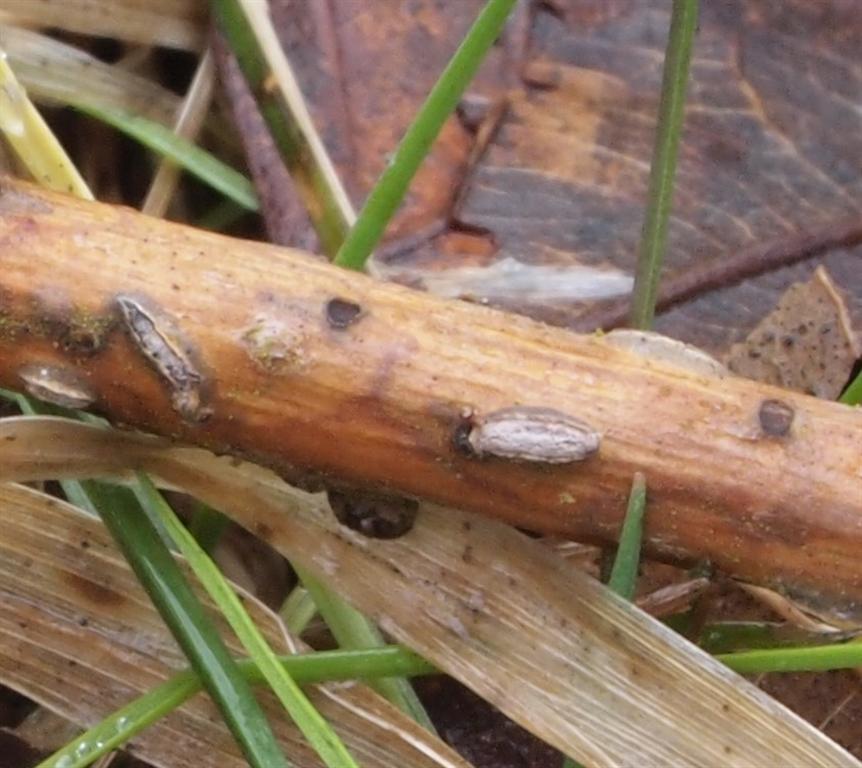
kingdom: Fungi
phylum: Ascomycota
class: Leotiomycetes
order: Rhytismatales
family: Rhytismataceae
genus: Colpoma
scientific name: Colpoma quercinum
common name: ege-sprækkeskive
